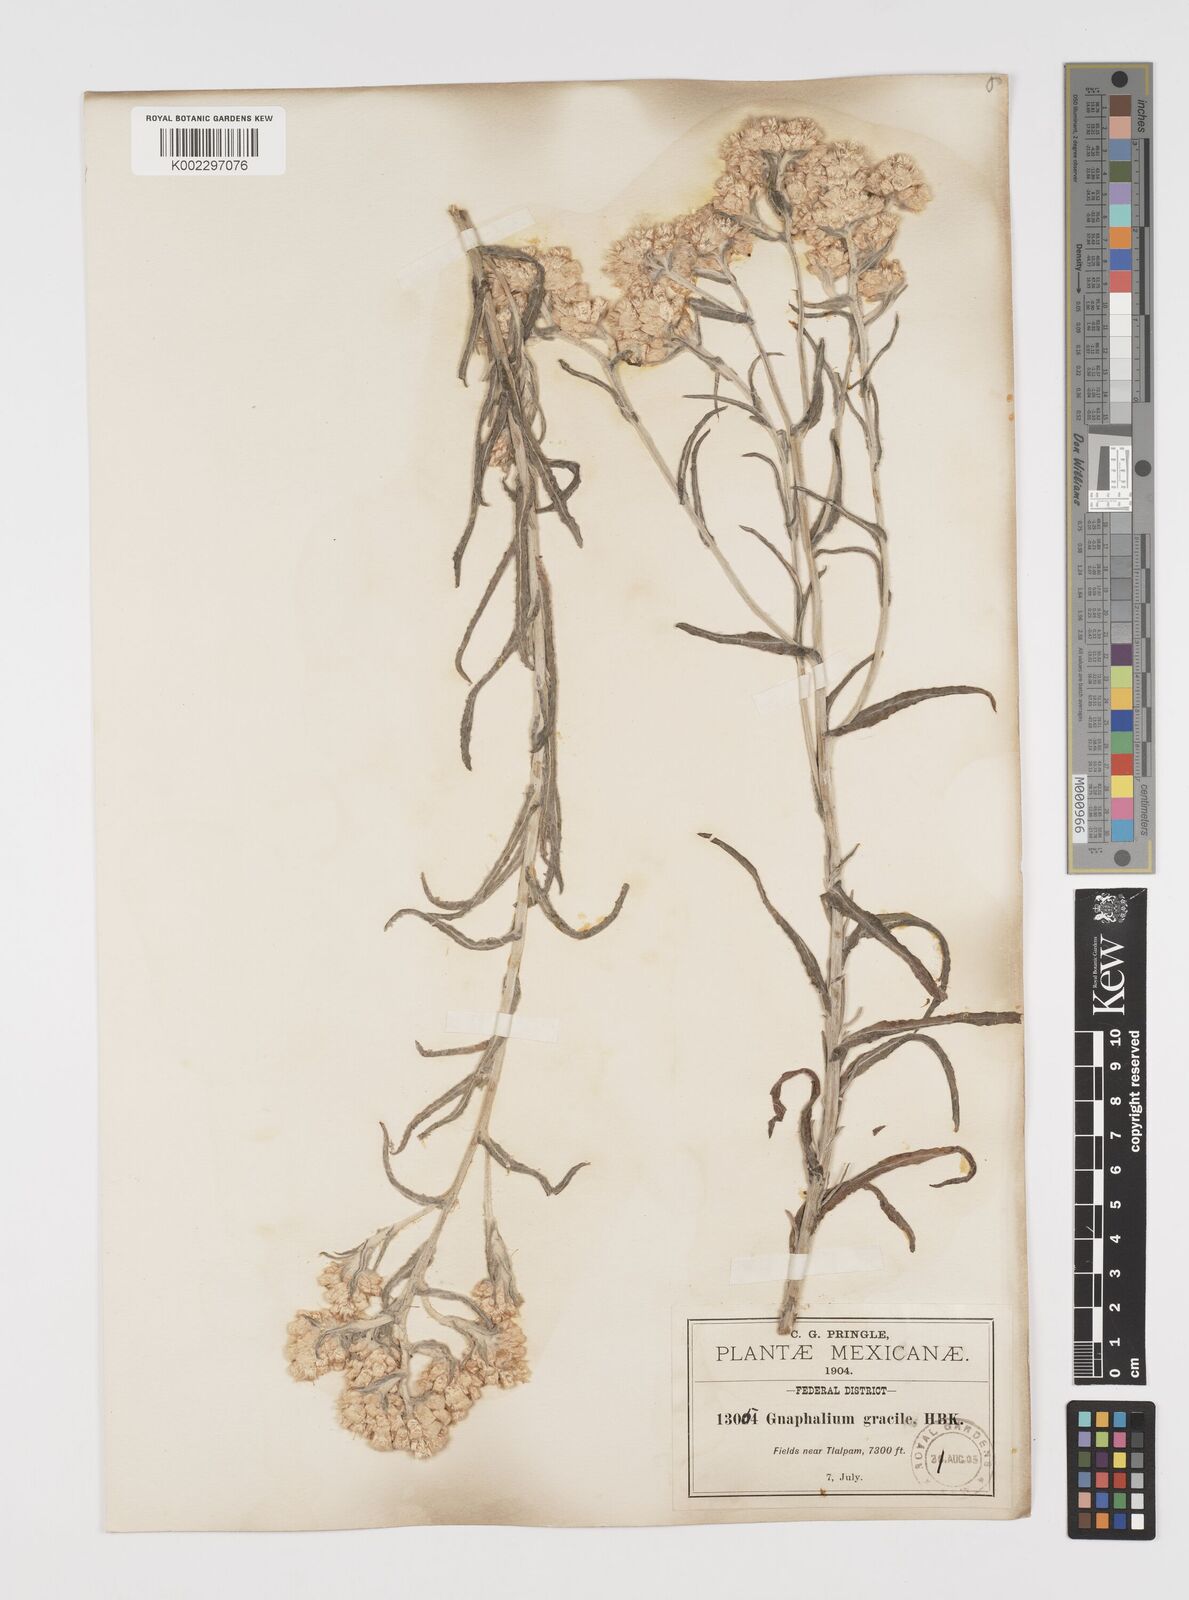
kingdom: Plantae
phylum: Tracheophyta
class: Magnoliopsida
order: Asterales
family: Asteraceae
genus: Pseudognaphalium
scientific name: Pseudognaphalium
